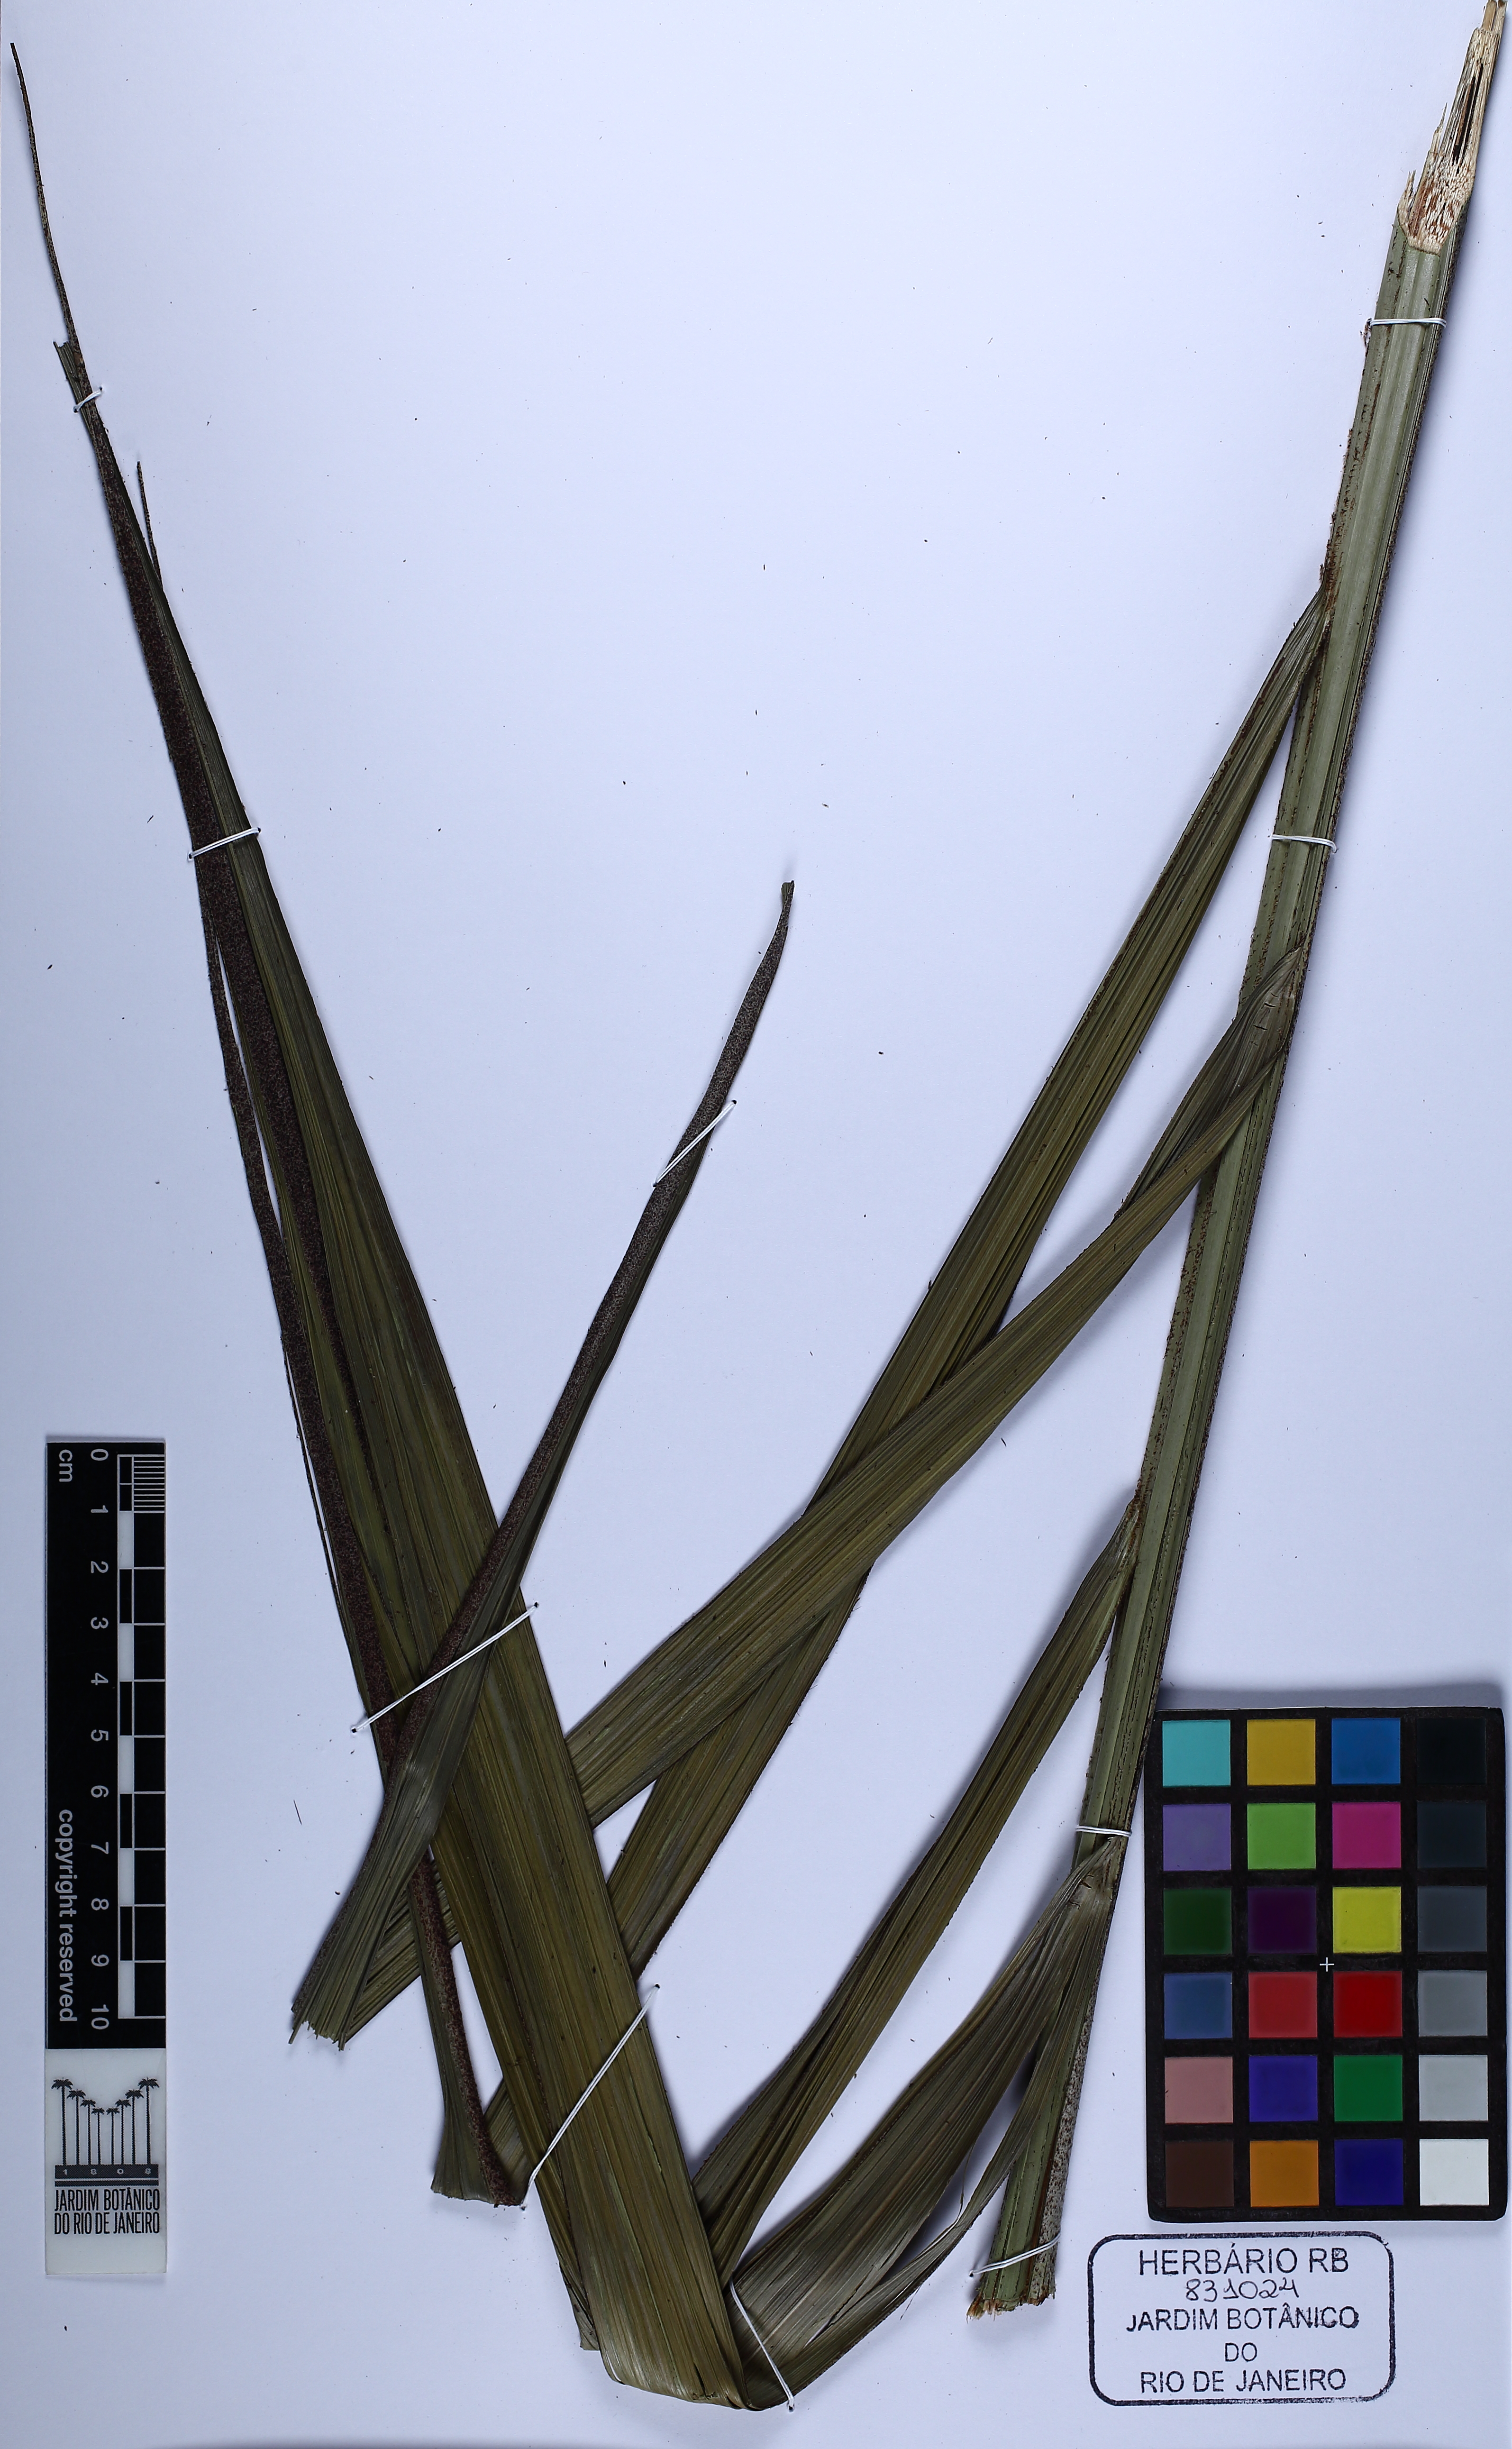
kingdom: Plantae
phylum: Tracheophyta
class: Liliopsida
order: Arecales
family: Arecaceae
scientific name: Arecaceae
